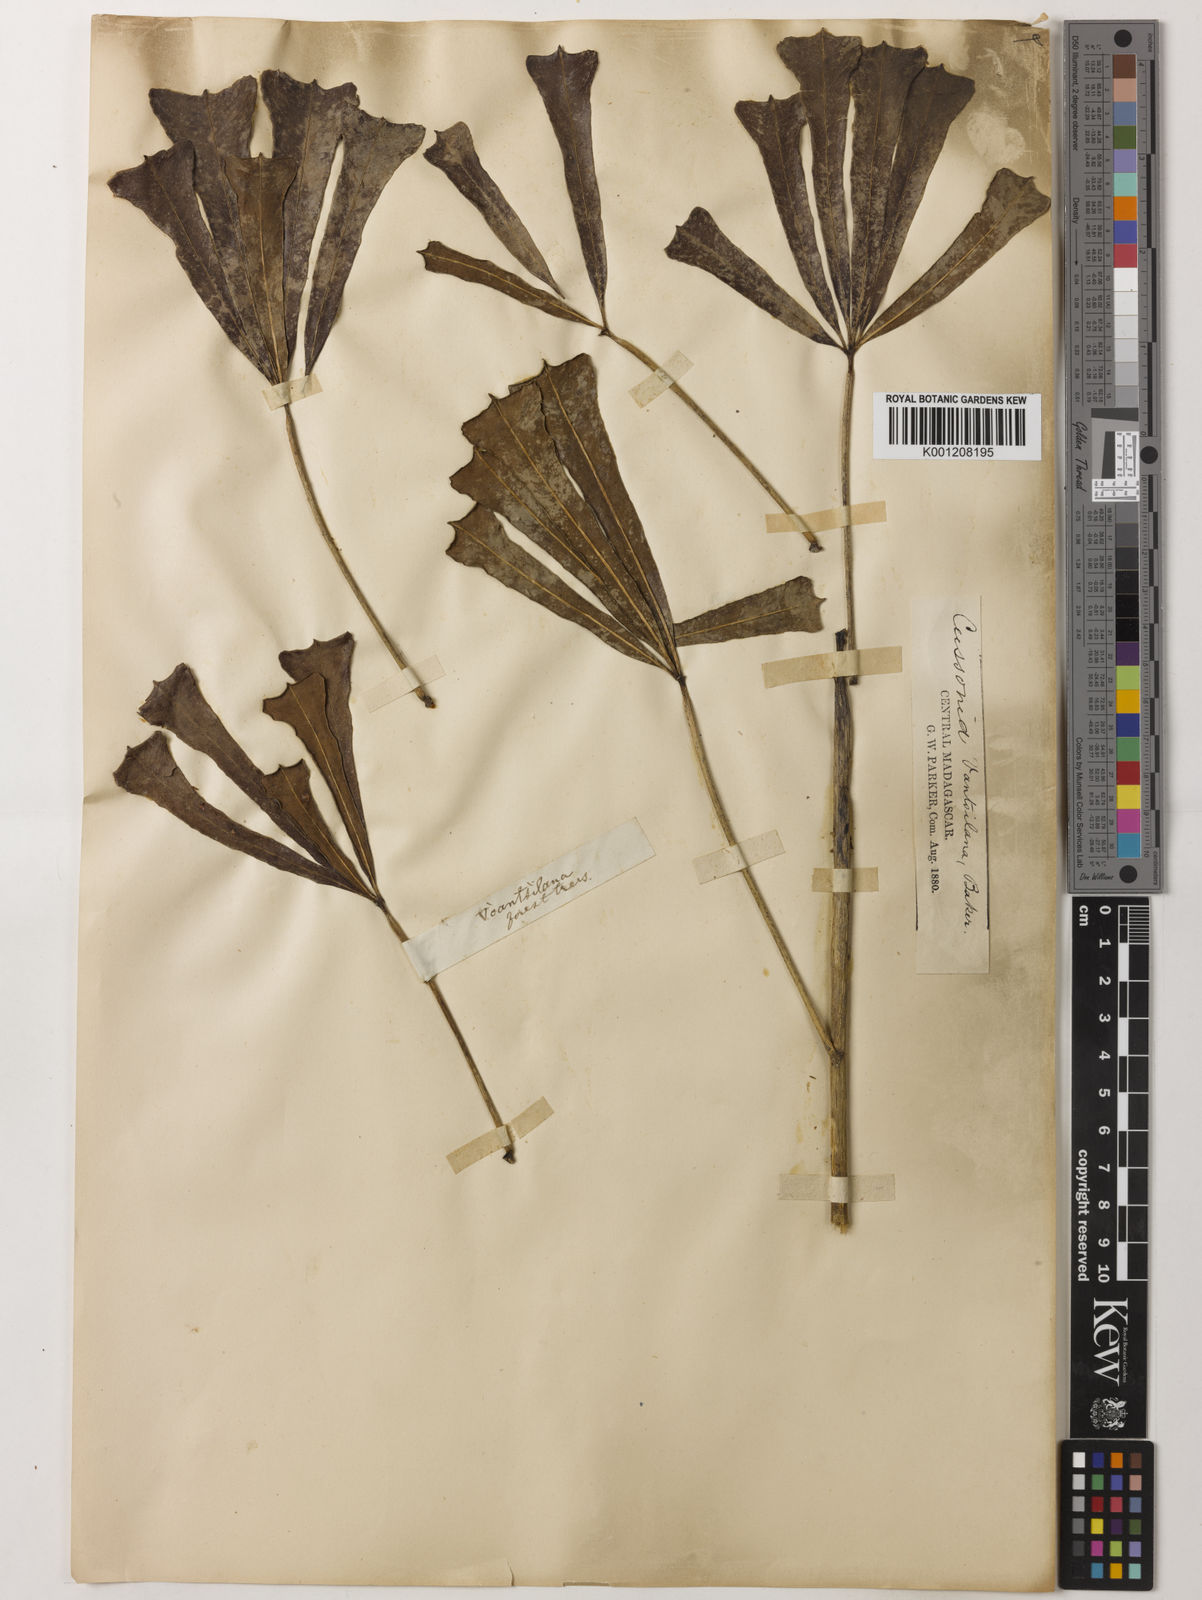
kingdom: Plantae
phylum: Tracheophyta
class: Magnoliopsida
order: Apiales
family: Araliaceae
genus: Neocussonia
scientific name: Neocussonia vantsilana
